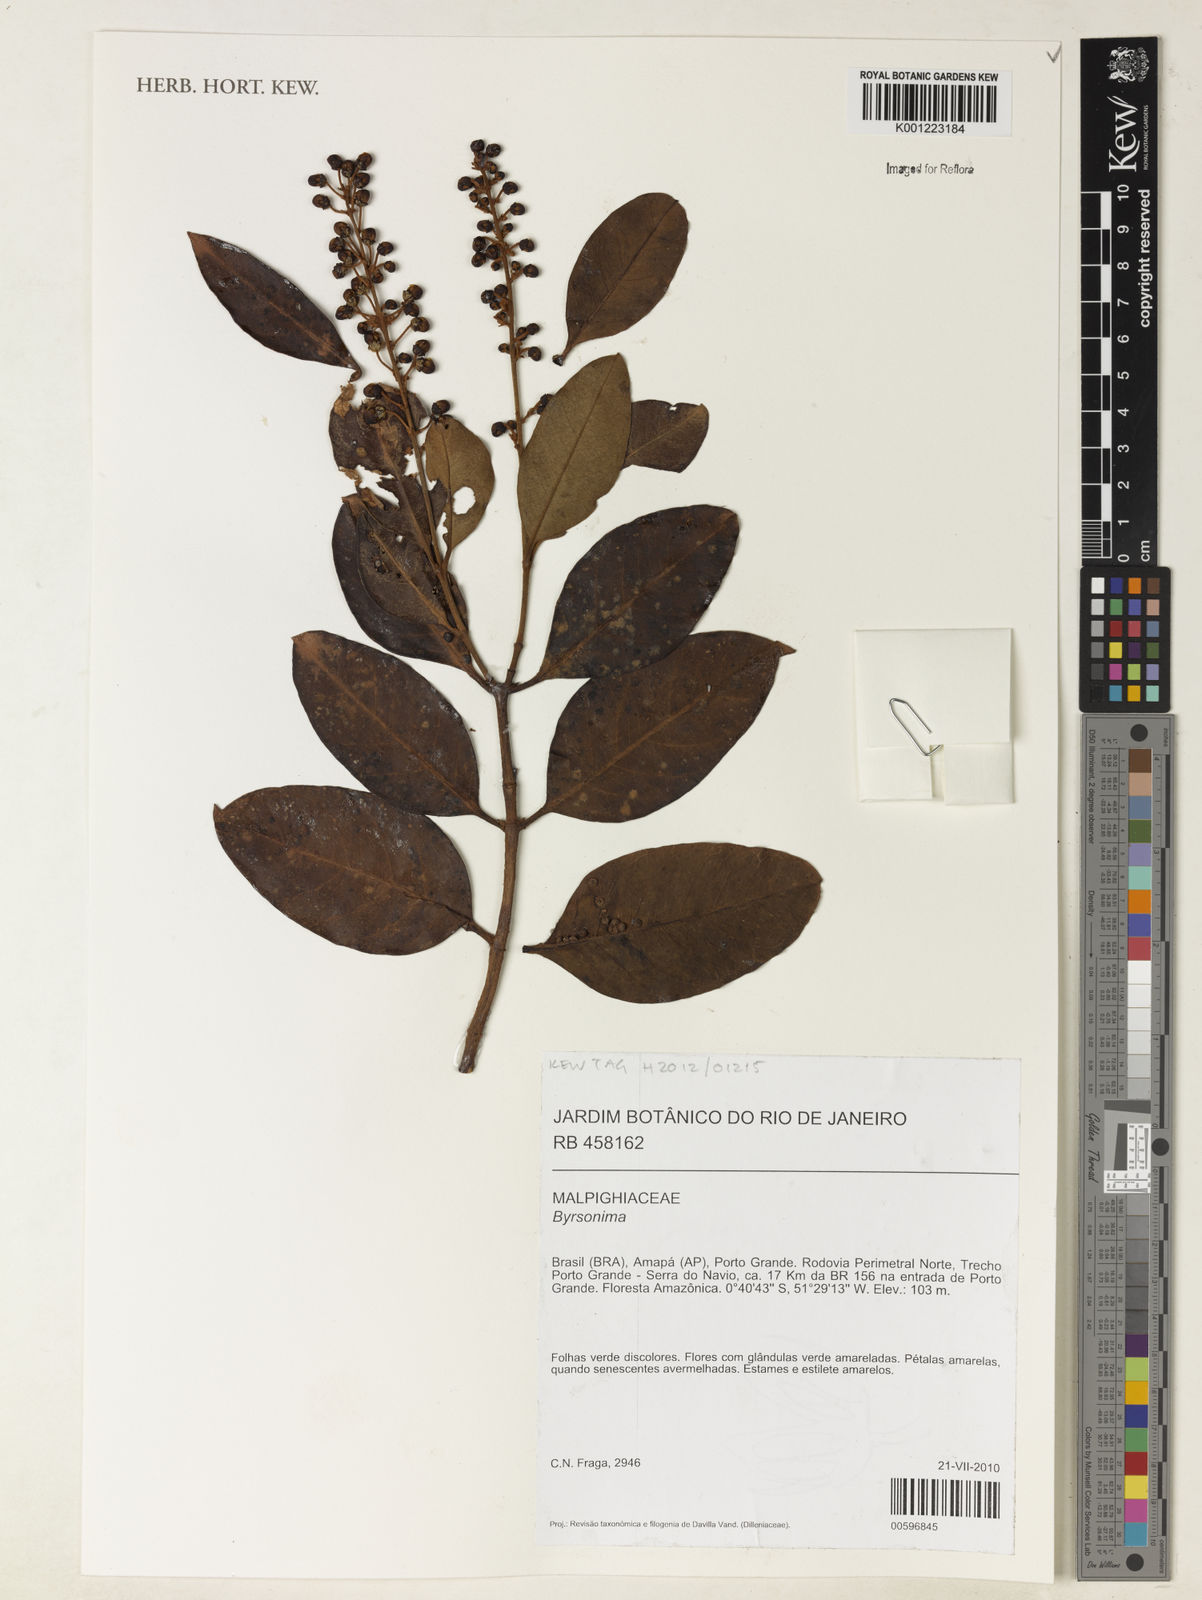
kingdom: Plantae
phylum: Tracheophyta
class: Magnoliopsida
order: Malpighiales
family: Malpighiaceae
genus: Byrsonima
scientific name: Byrsonima
